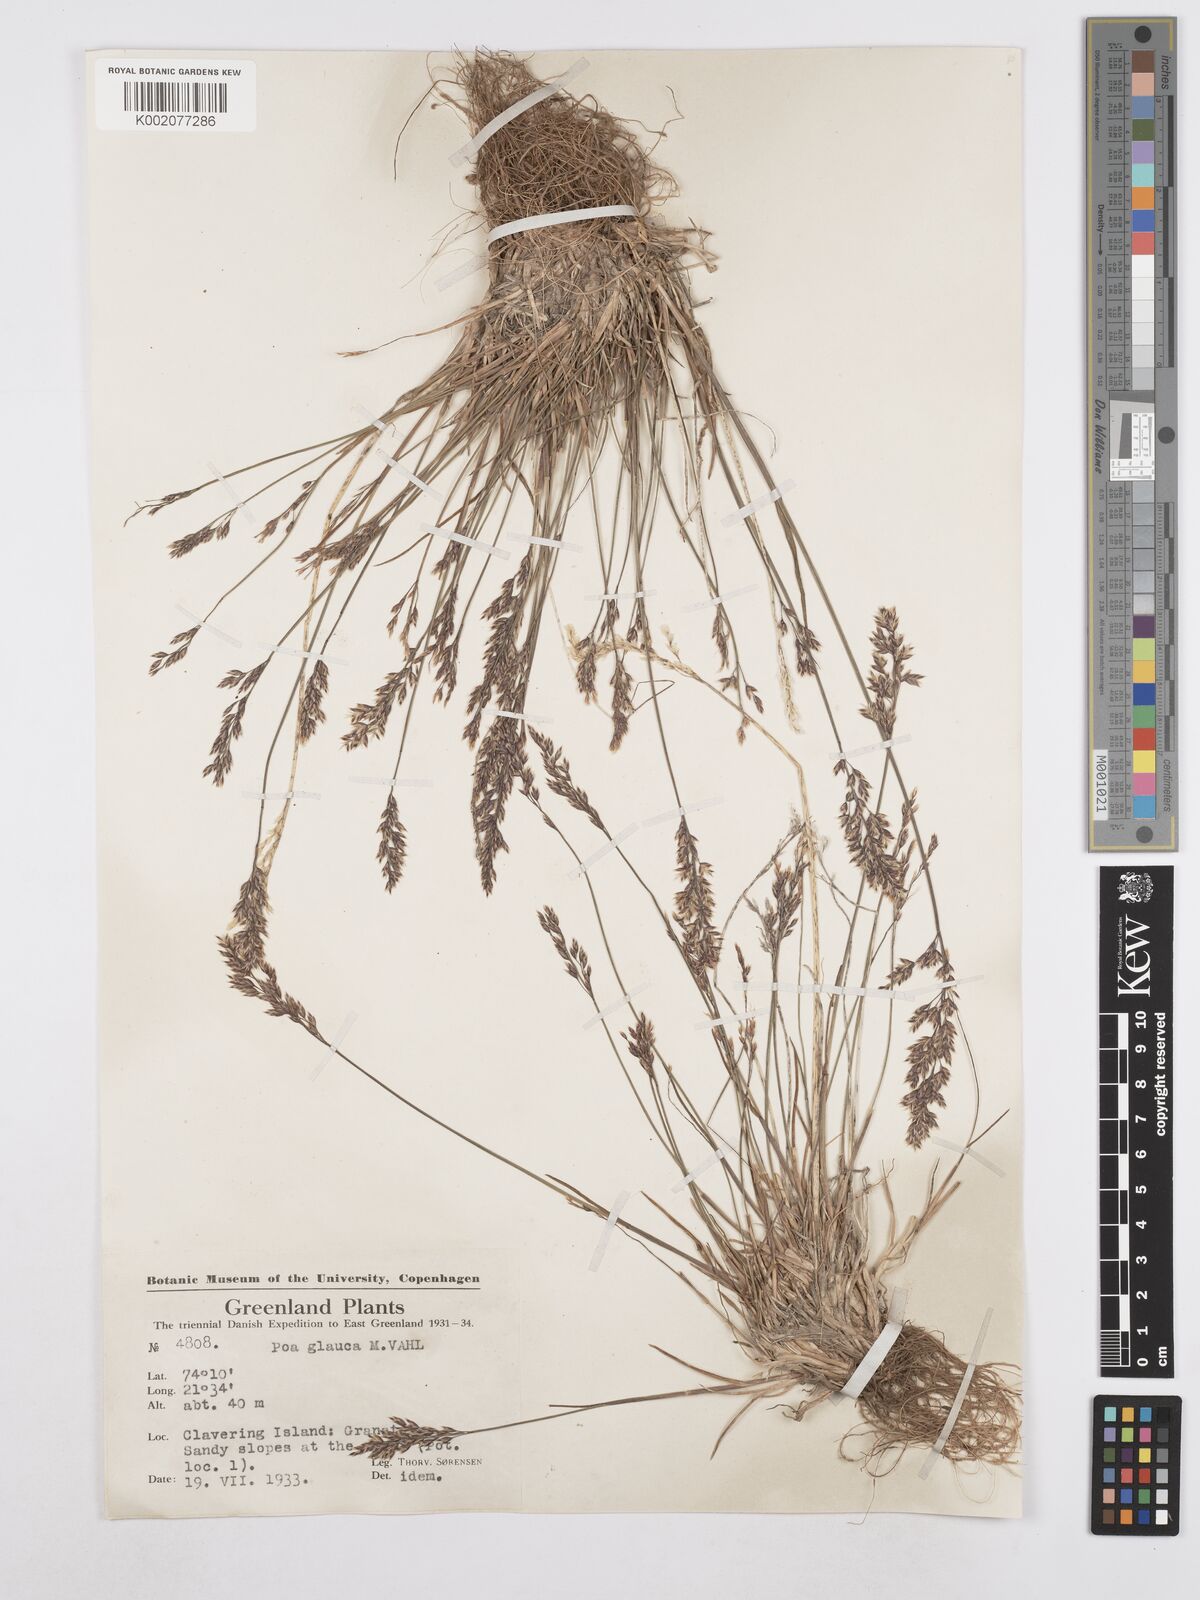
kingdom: Plantae
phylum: Tracheophyta
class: Liliopsida
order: Poales
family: Poaceae
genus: Poa
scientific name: Poa glauca
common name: Glaucous bluegrass
